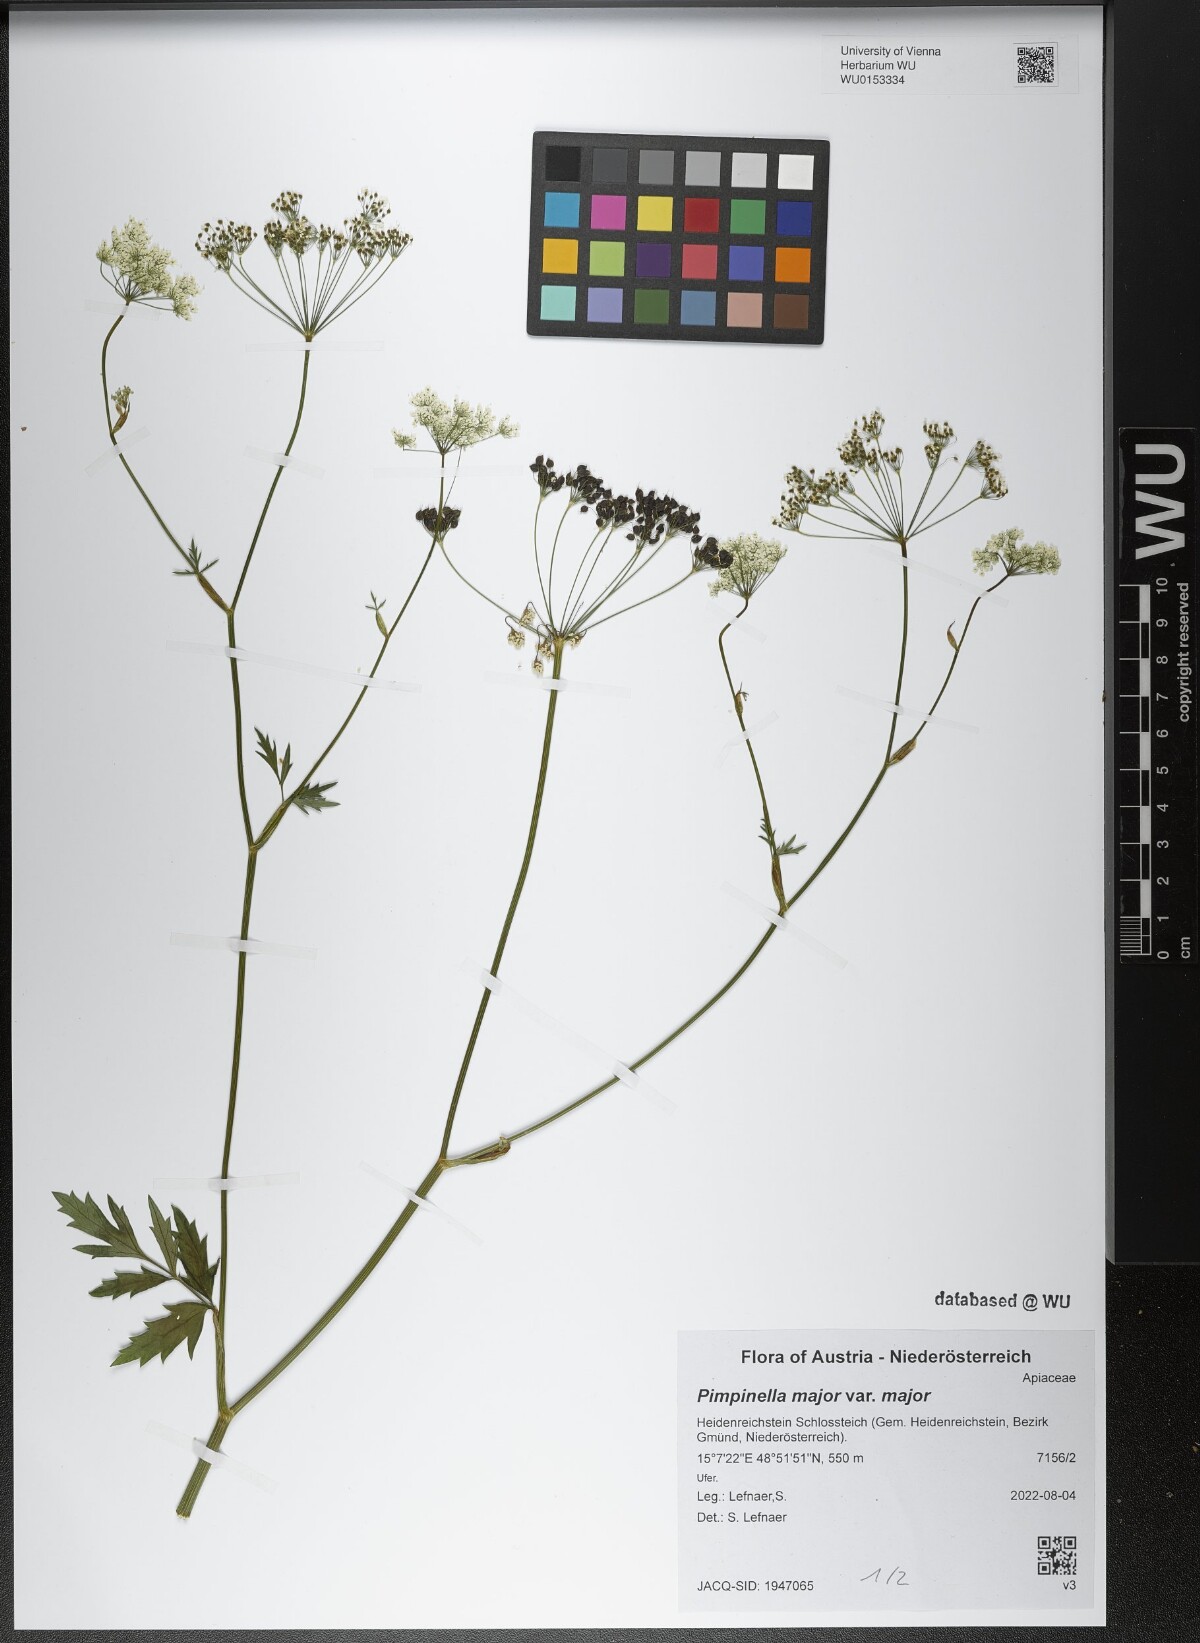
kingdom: Plantae
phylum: Tracheophyta
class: Magnoliopsida
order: Apiales
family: Apiaceae
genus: Pimpinella
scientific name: Pimpinella major
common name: Greater burnet-saxifrage
